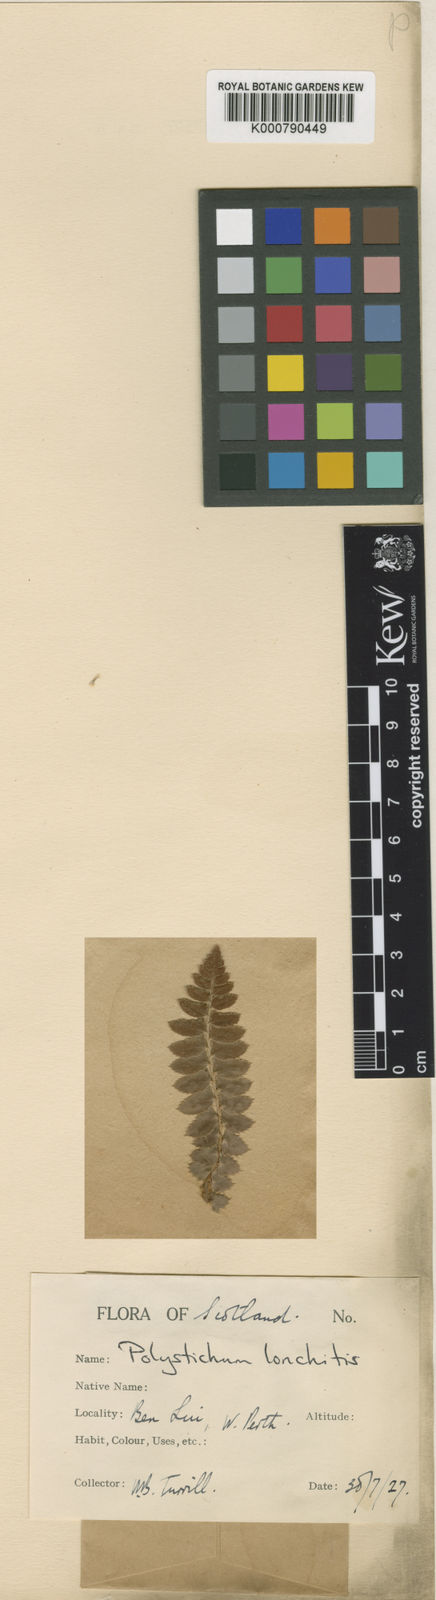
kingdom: Plantae
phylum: Tracheophyta
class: Polypodiopsida
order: Polypodiales
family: Dryopteridaceae
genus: Polystichum
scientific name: Polystichum
